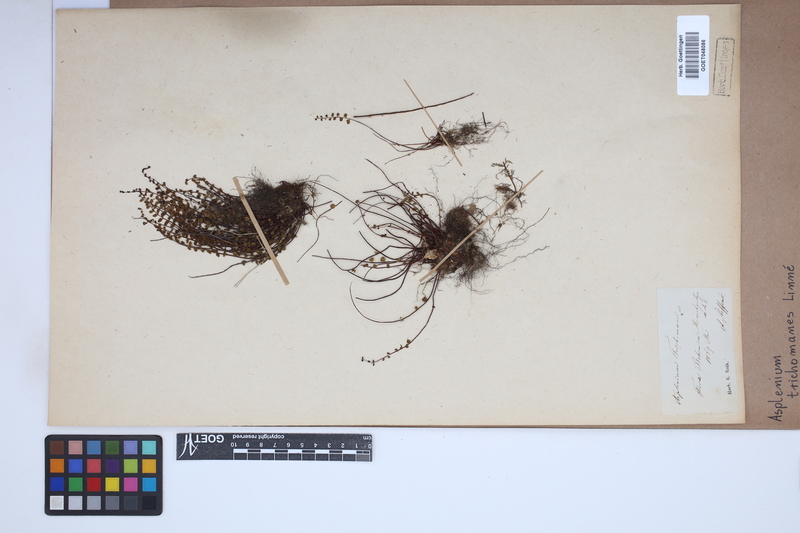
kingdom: Plantae
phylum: Tracheophyta
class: Polypodiopsida
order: Polypodiales
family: Aspleniaceae
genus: Asplenium
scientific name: Asplenium trichomanes
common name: Maidenhair spleenwort
